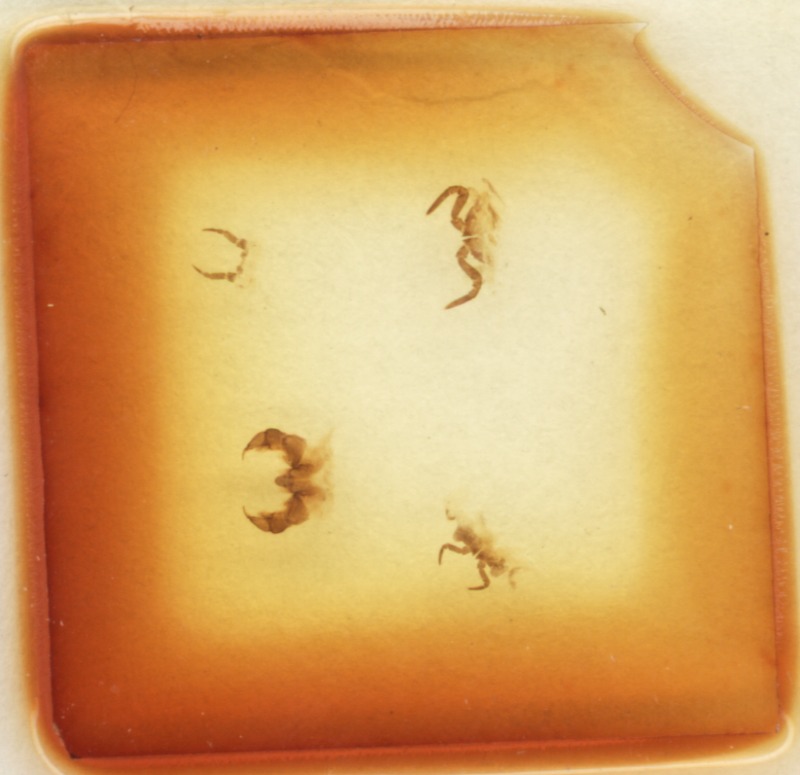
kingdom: Animalia
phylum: Arthropoda
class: Diplopoda
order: Glomerida
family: Glomeridae
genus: Simplomeris
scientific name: Simplomeris montivaga
